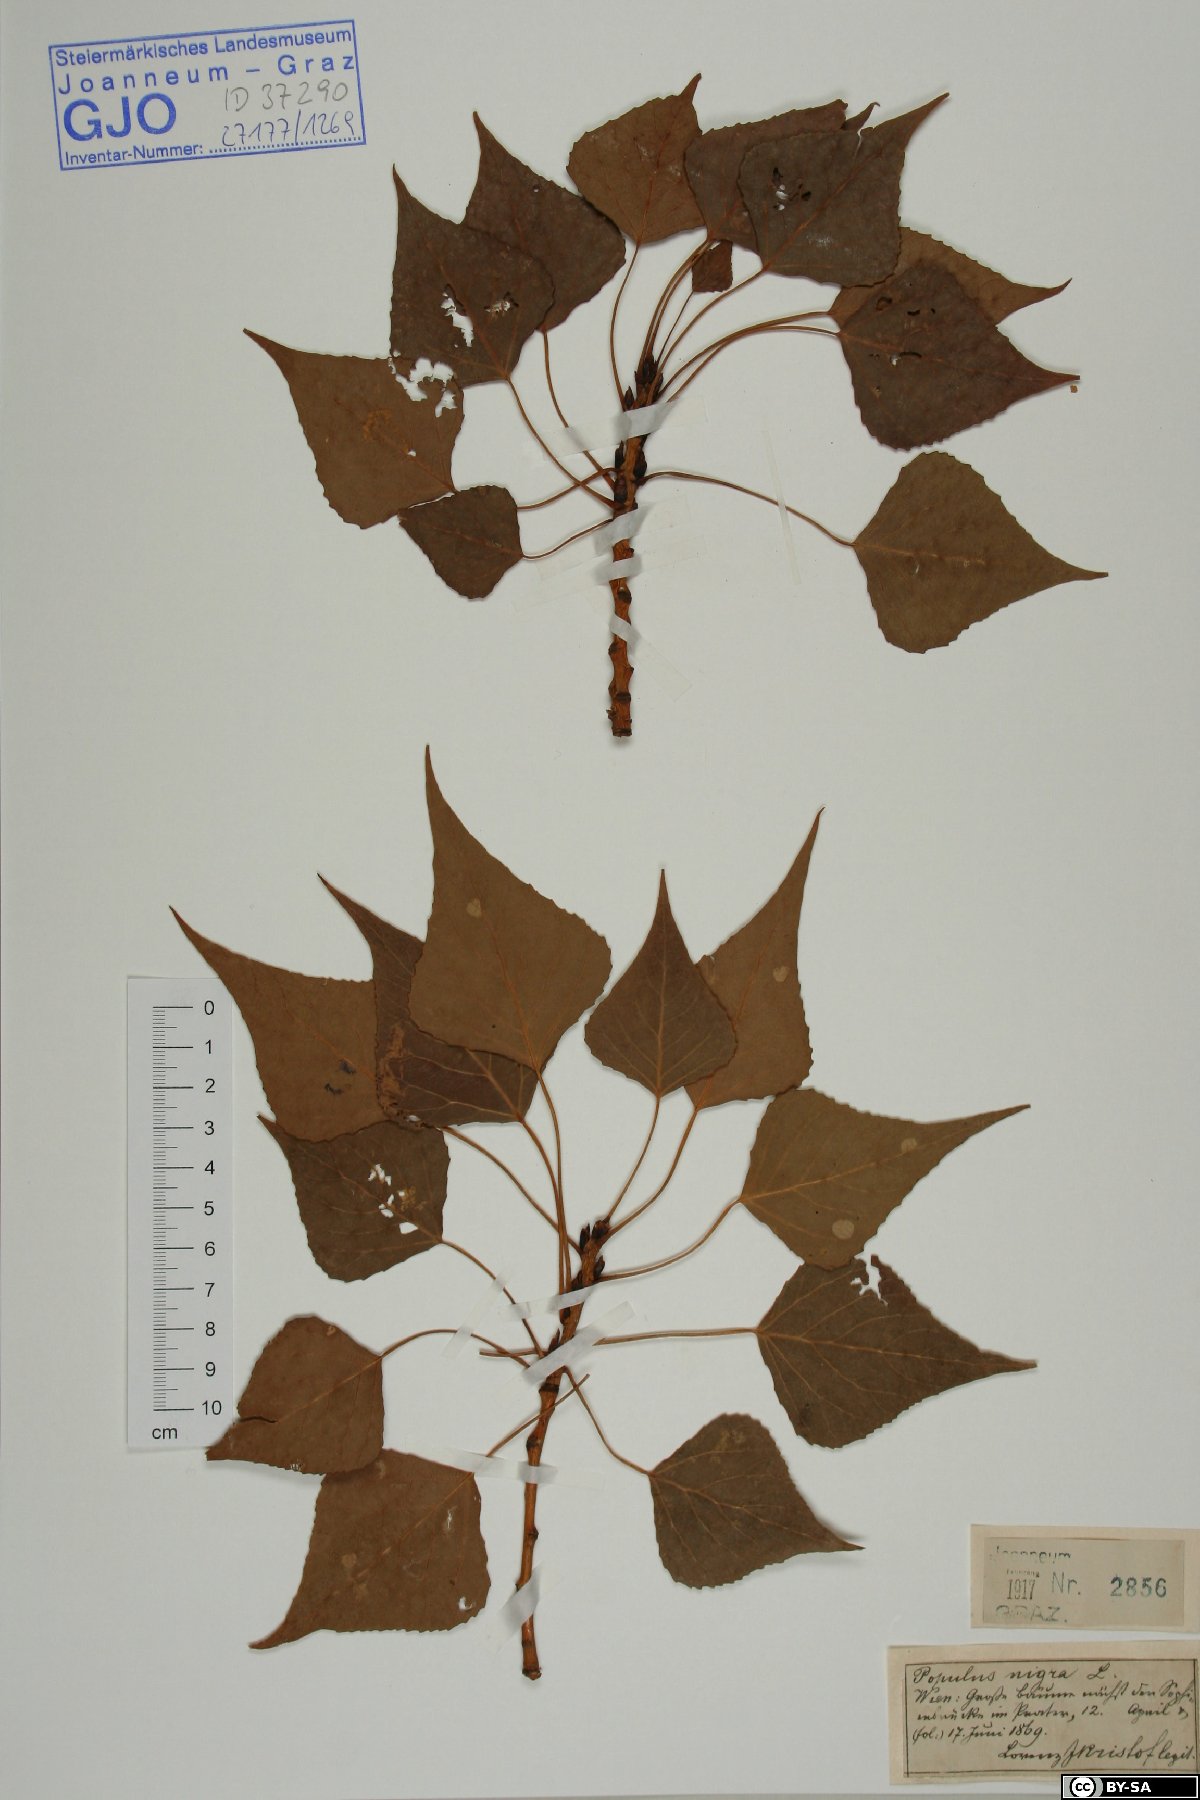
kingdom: Plantae
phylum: Tracheophyta
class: Magnoliopsida
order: Malpighiales
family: Salicaceae
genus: Populus
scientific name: Populus nigra
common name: Black poplar
